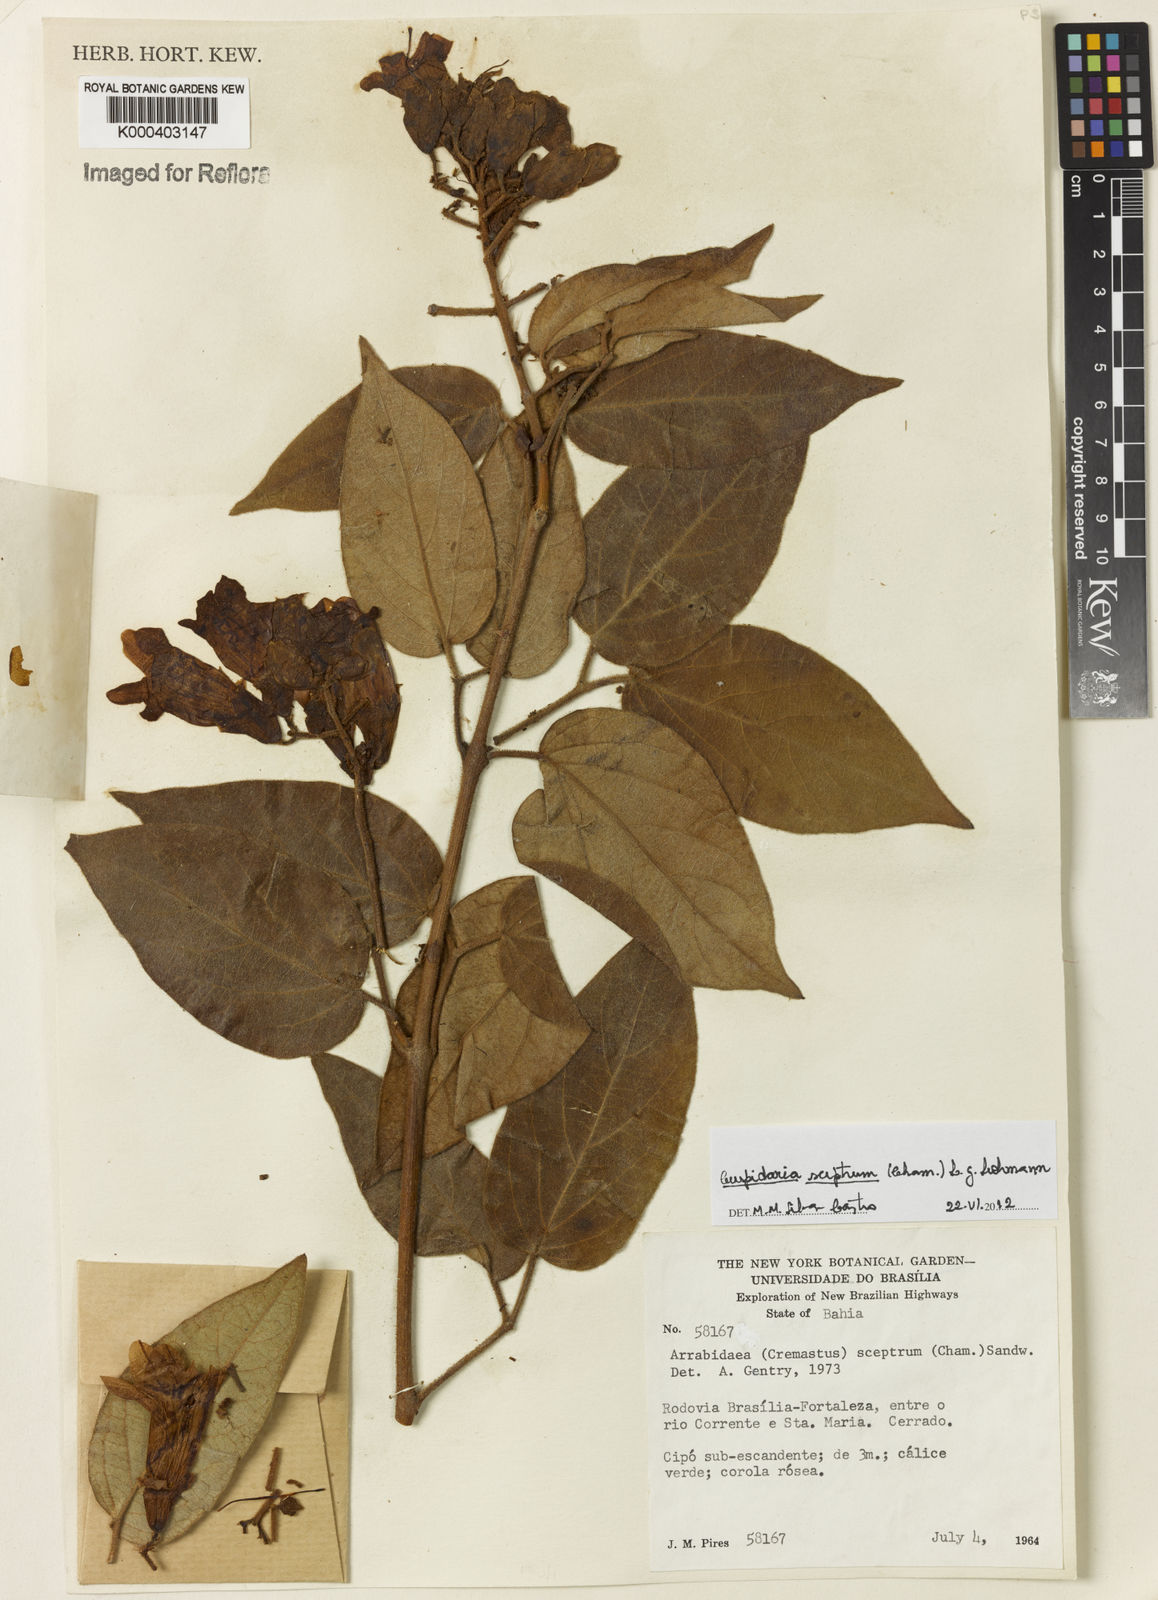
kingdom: Plantae
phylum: Tracheophyta
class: Magnoliopsida
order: Lamiales
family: Bignoniaceae
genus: Cuspidaria
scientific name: Cuspidaria sceptrum
